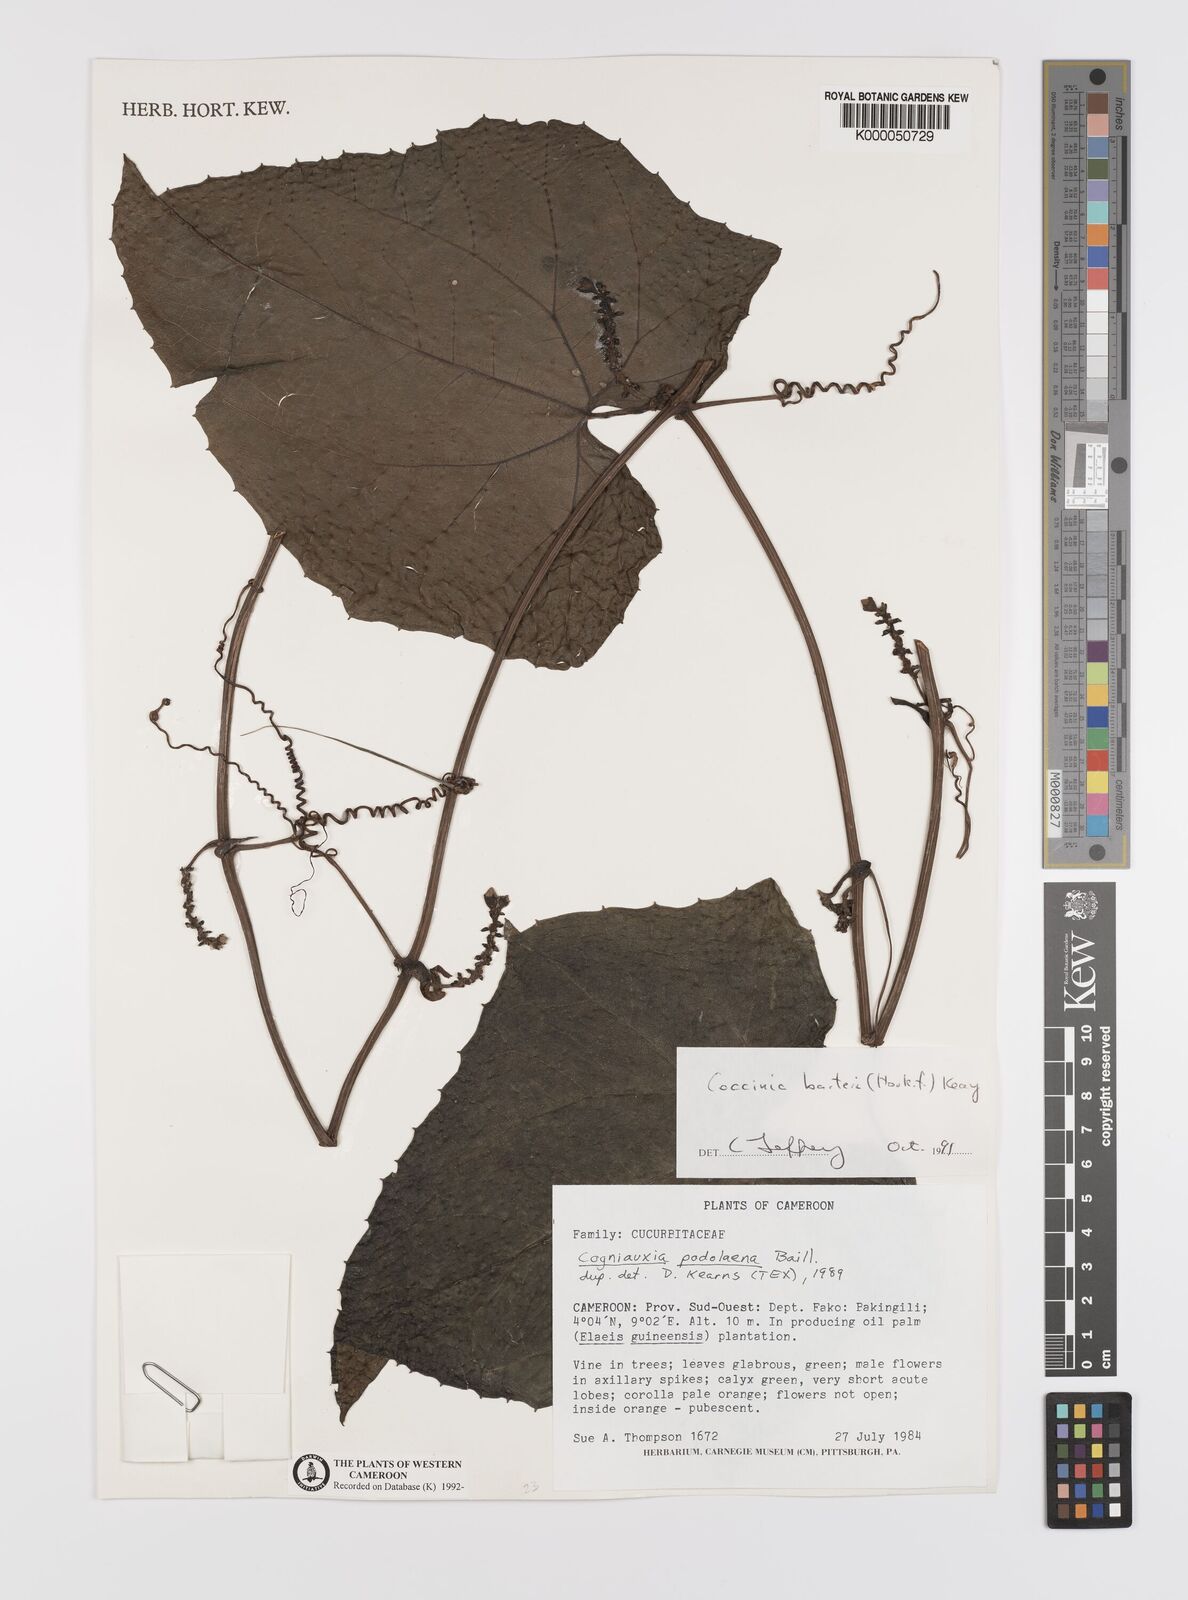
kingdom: Plantae
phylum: Tracheophyta
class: Magnoliopsida
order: Cucurbitales
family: Cucurbitaceae
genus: Coccinia
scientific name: Coccinia barteri
